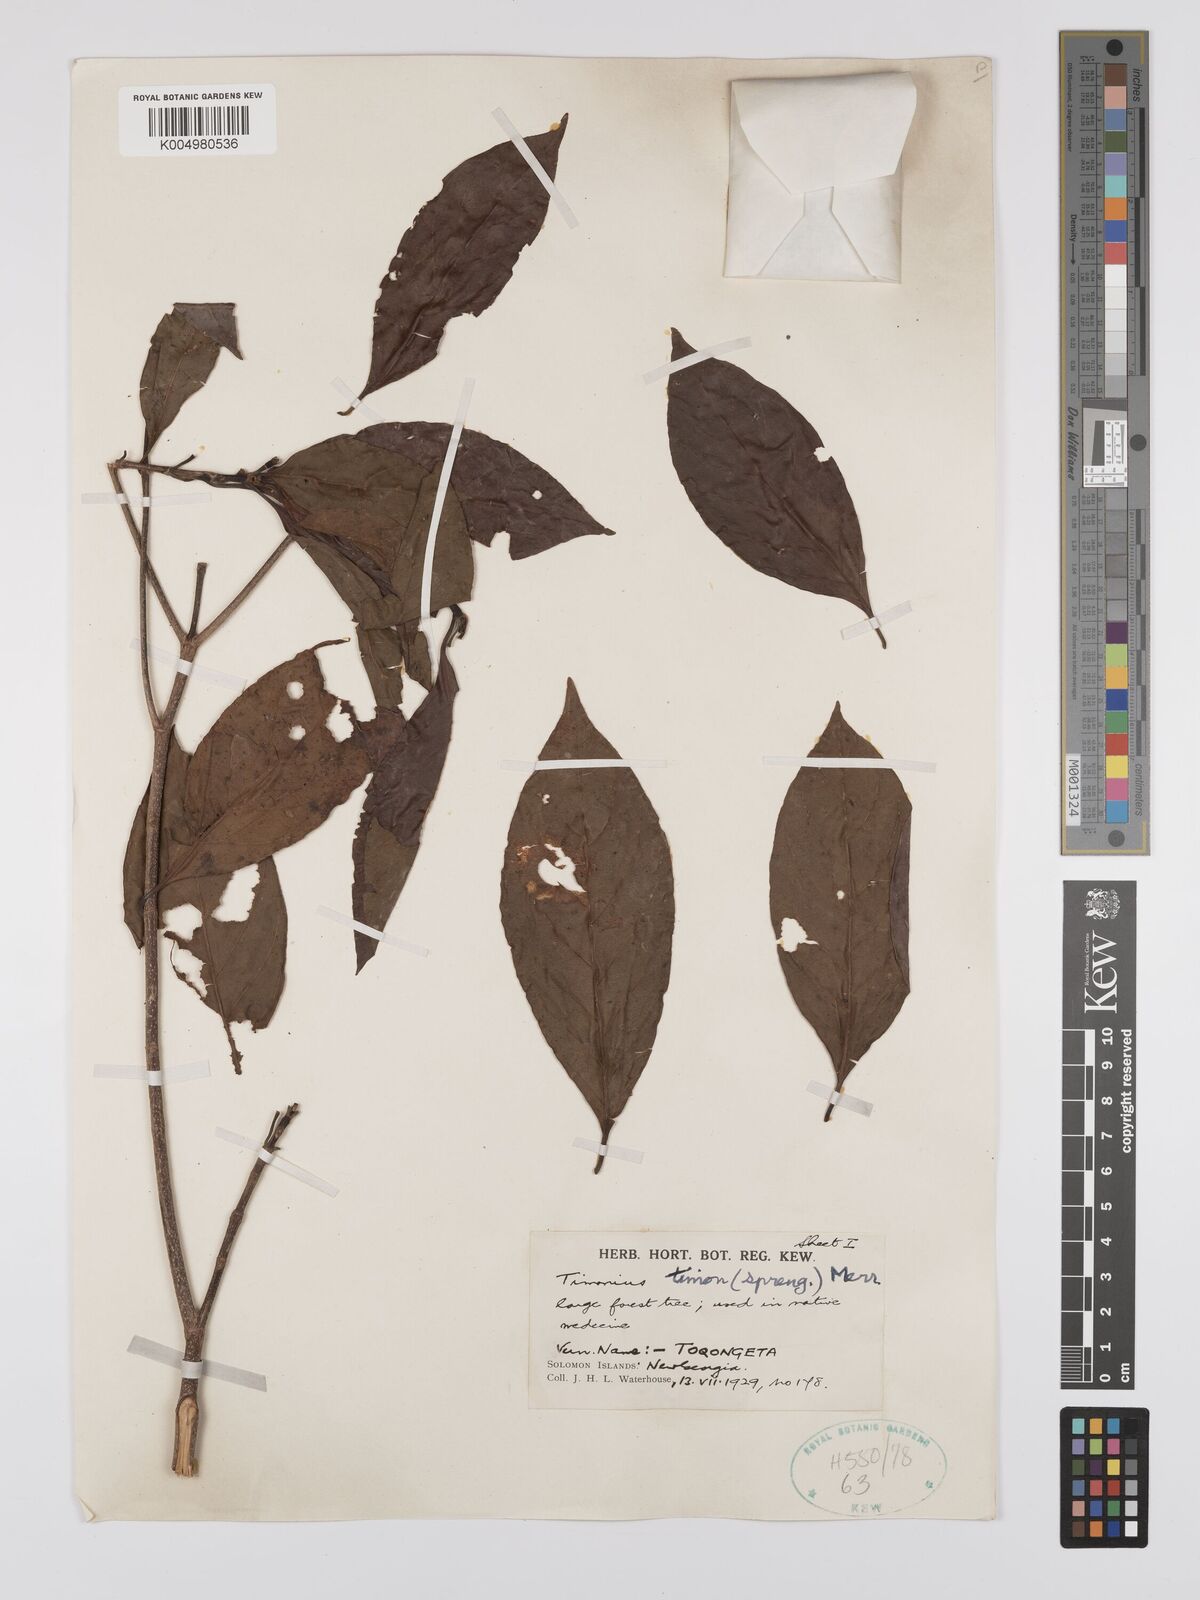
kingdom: Plantae
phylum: Tracheophyta
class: Magnoliopsida
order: Gentianales
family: Rubiaceae
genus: Timonius
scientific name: Timonius timon
